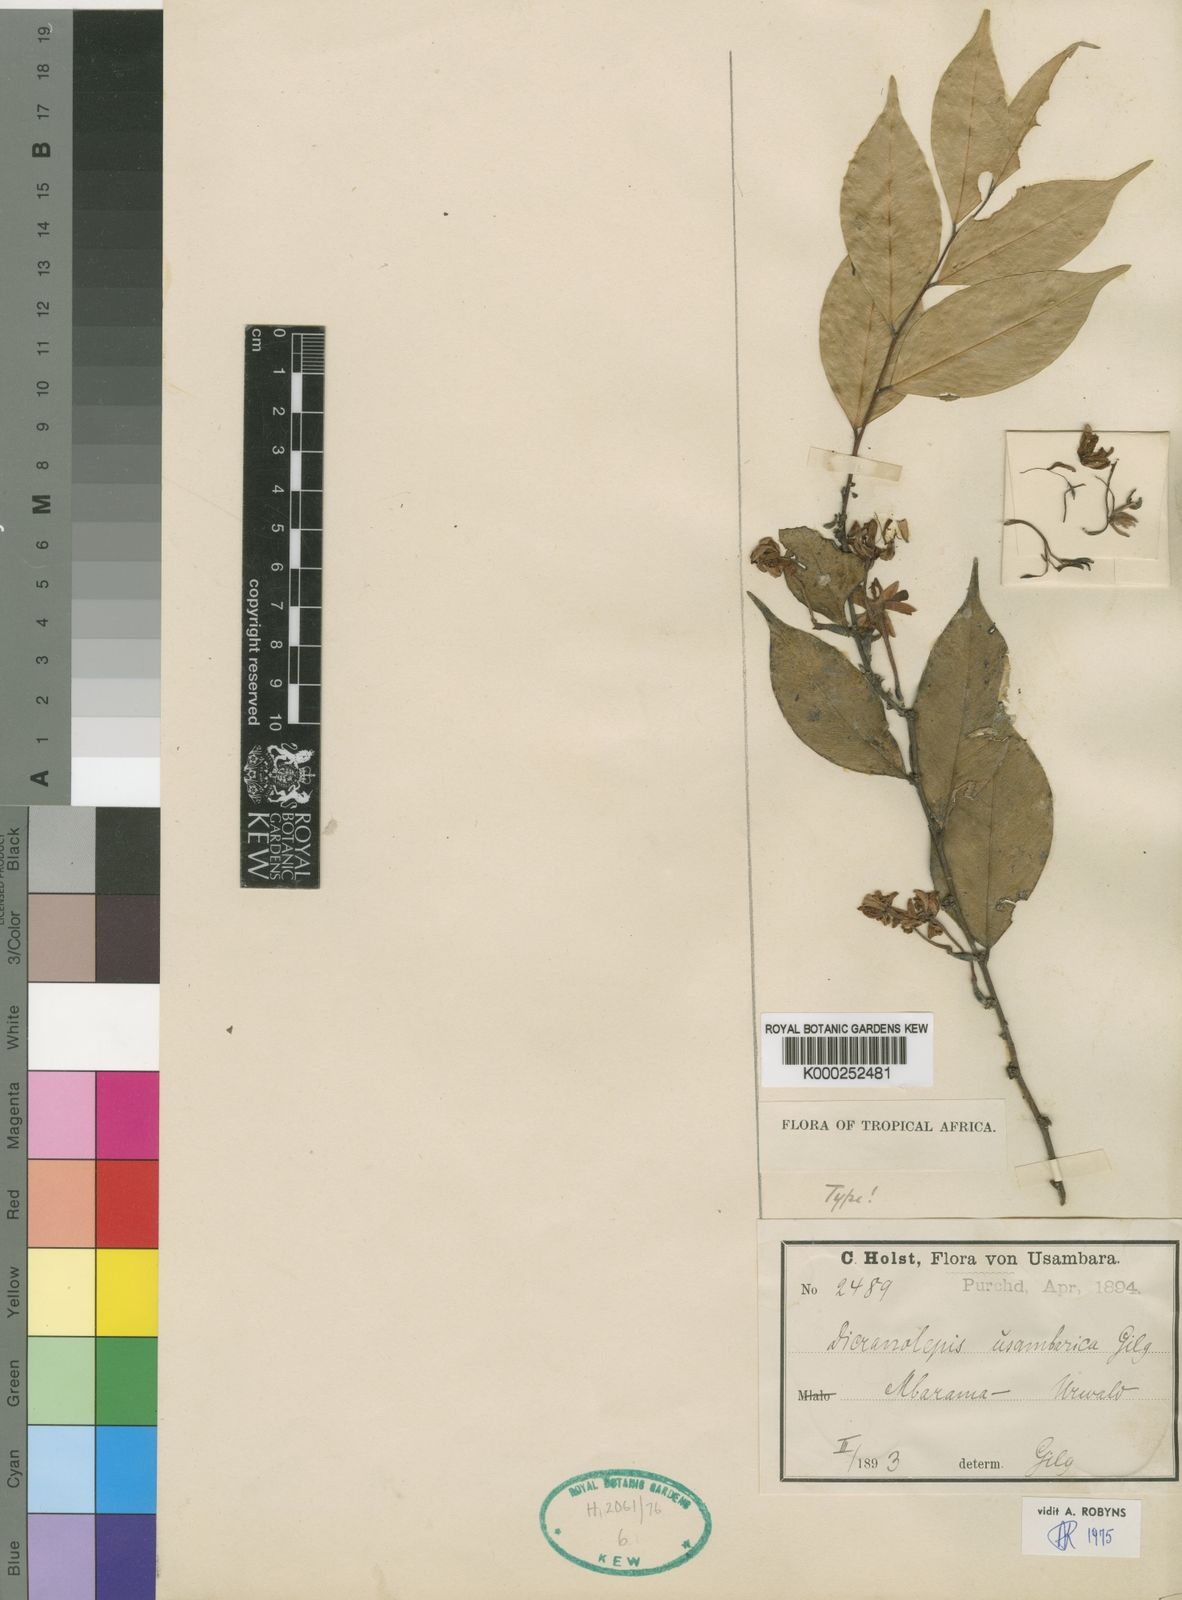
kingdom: Plantae
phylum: Tracheophyta
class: Magnoliopsida
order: Malvales
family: Thymelaeaceae
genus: Dicranolepis
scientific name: Dicranolepis usambarica
